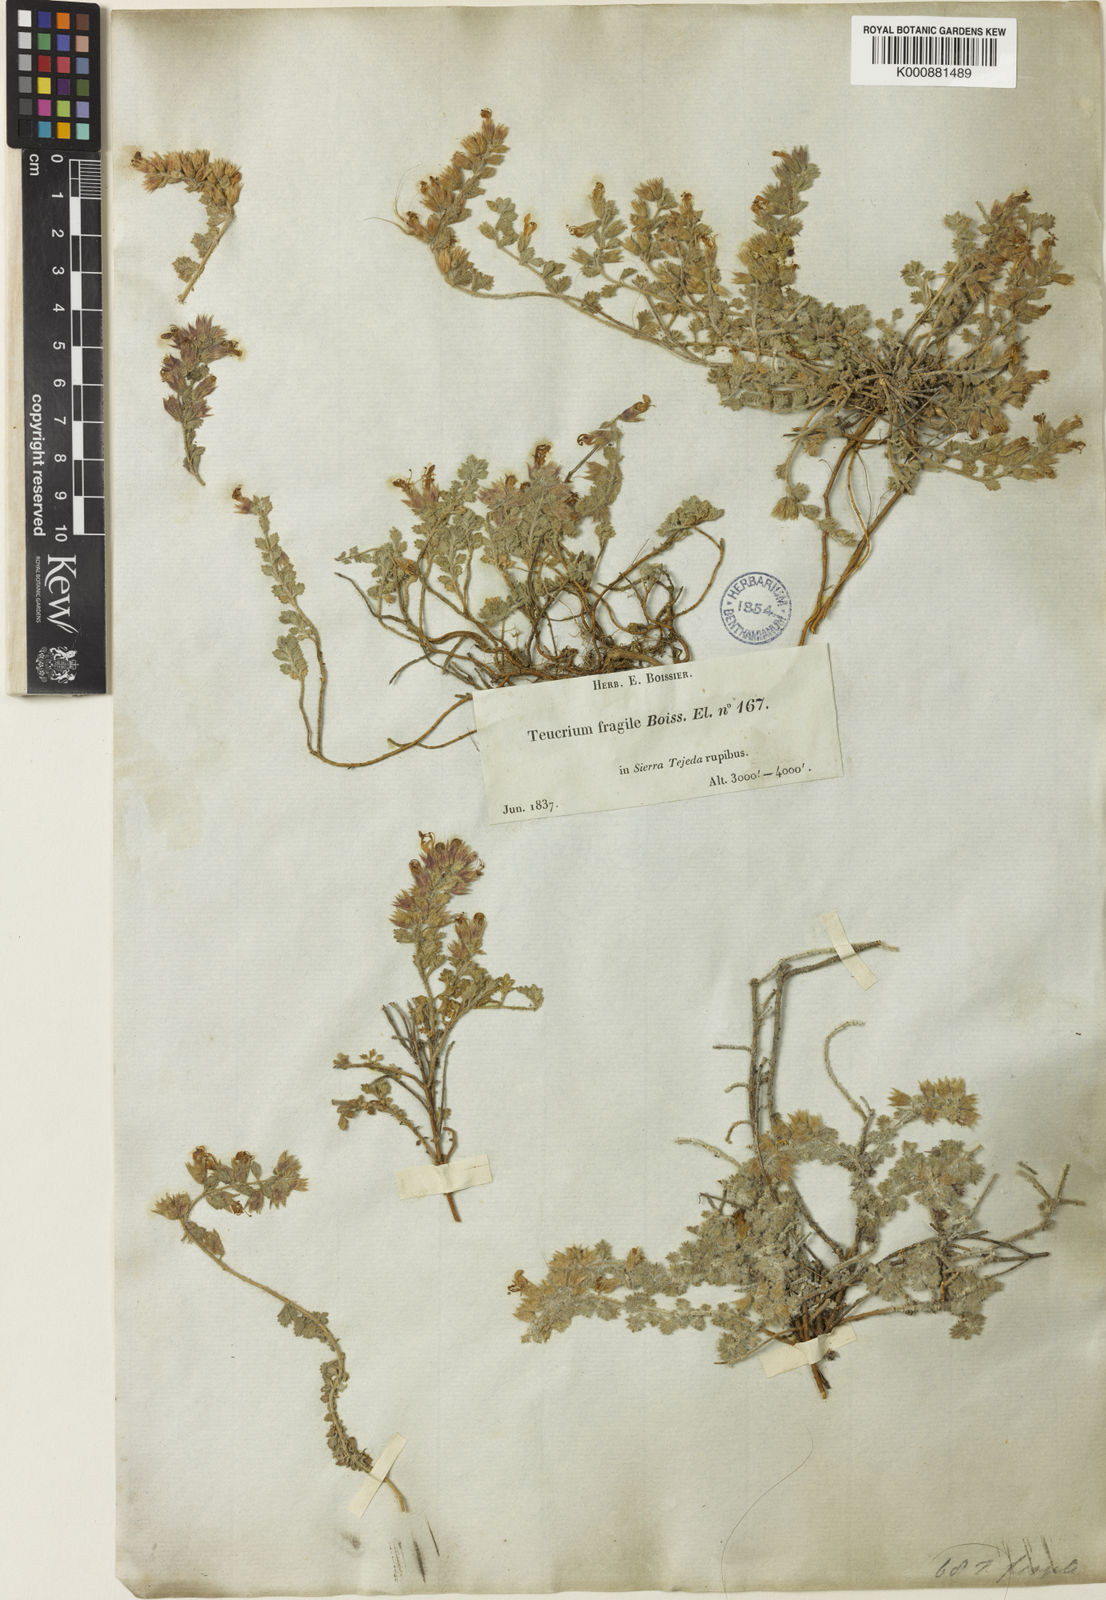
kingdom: Plantae
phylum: Tracheophyta
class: Magnoliopsida
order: Lamiales
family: Lamiaceae
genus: Teucrium
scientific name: Teucrium fragile
